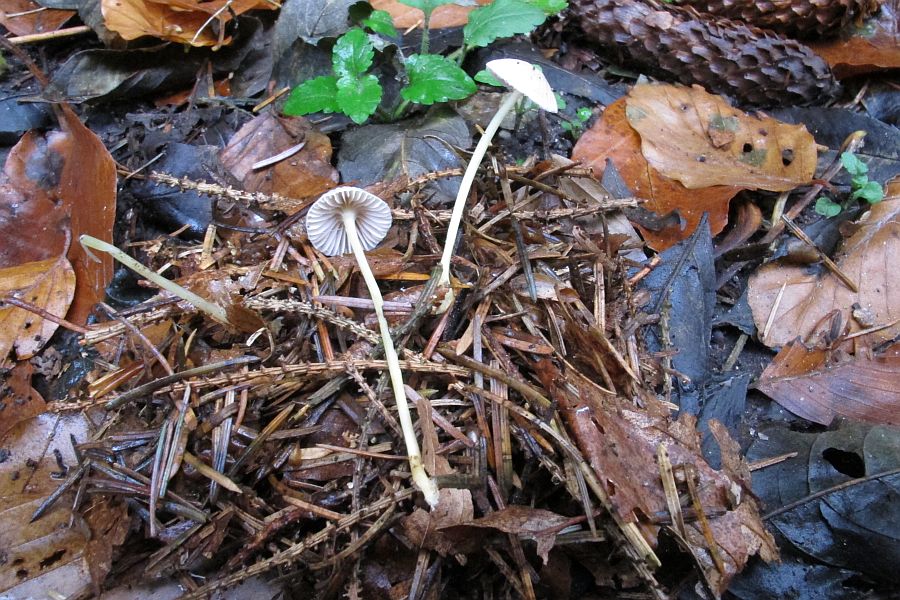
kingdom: Fungi
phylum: Basidiomycota
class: Agaricomycetes
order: Agaricales
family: Mycenaceae
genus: Mycena
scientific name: Mycena epipterygia
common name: gulstokket huesvamp
